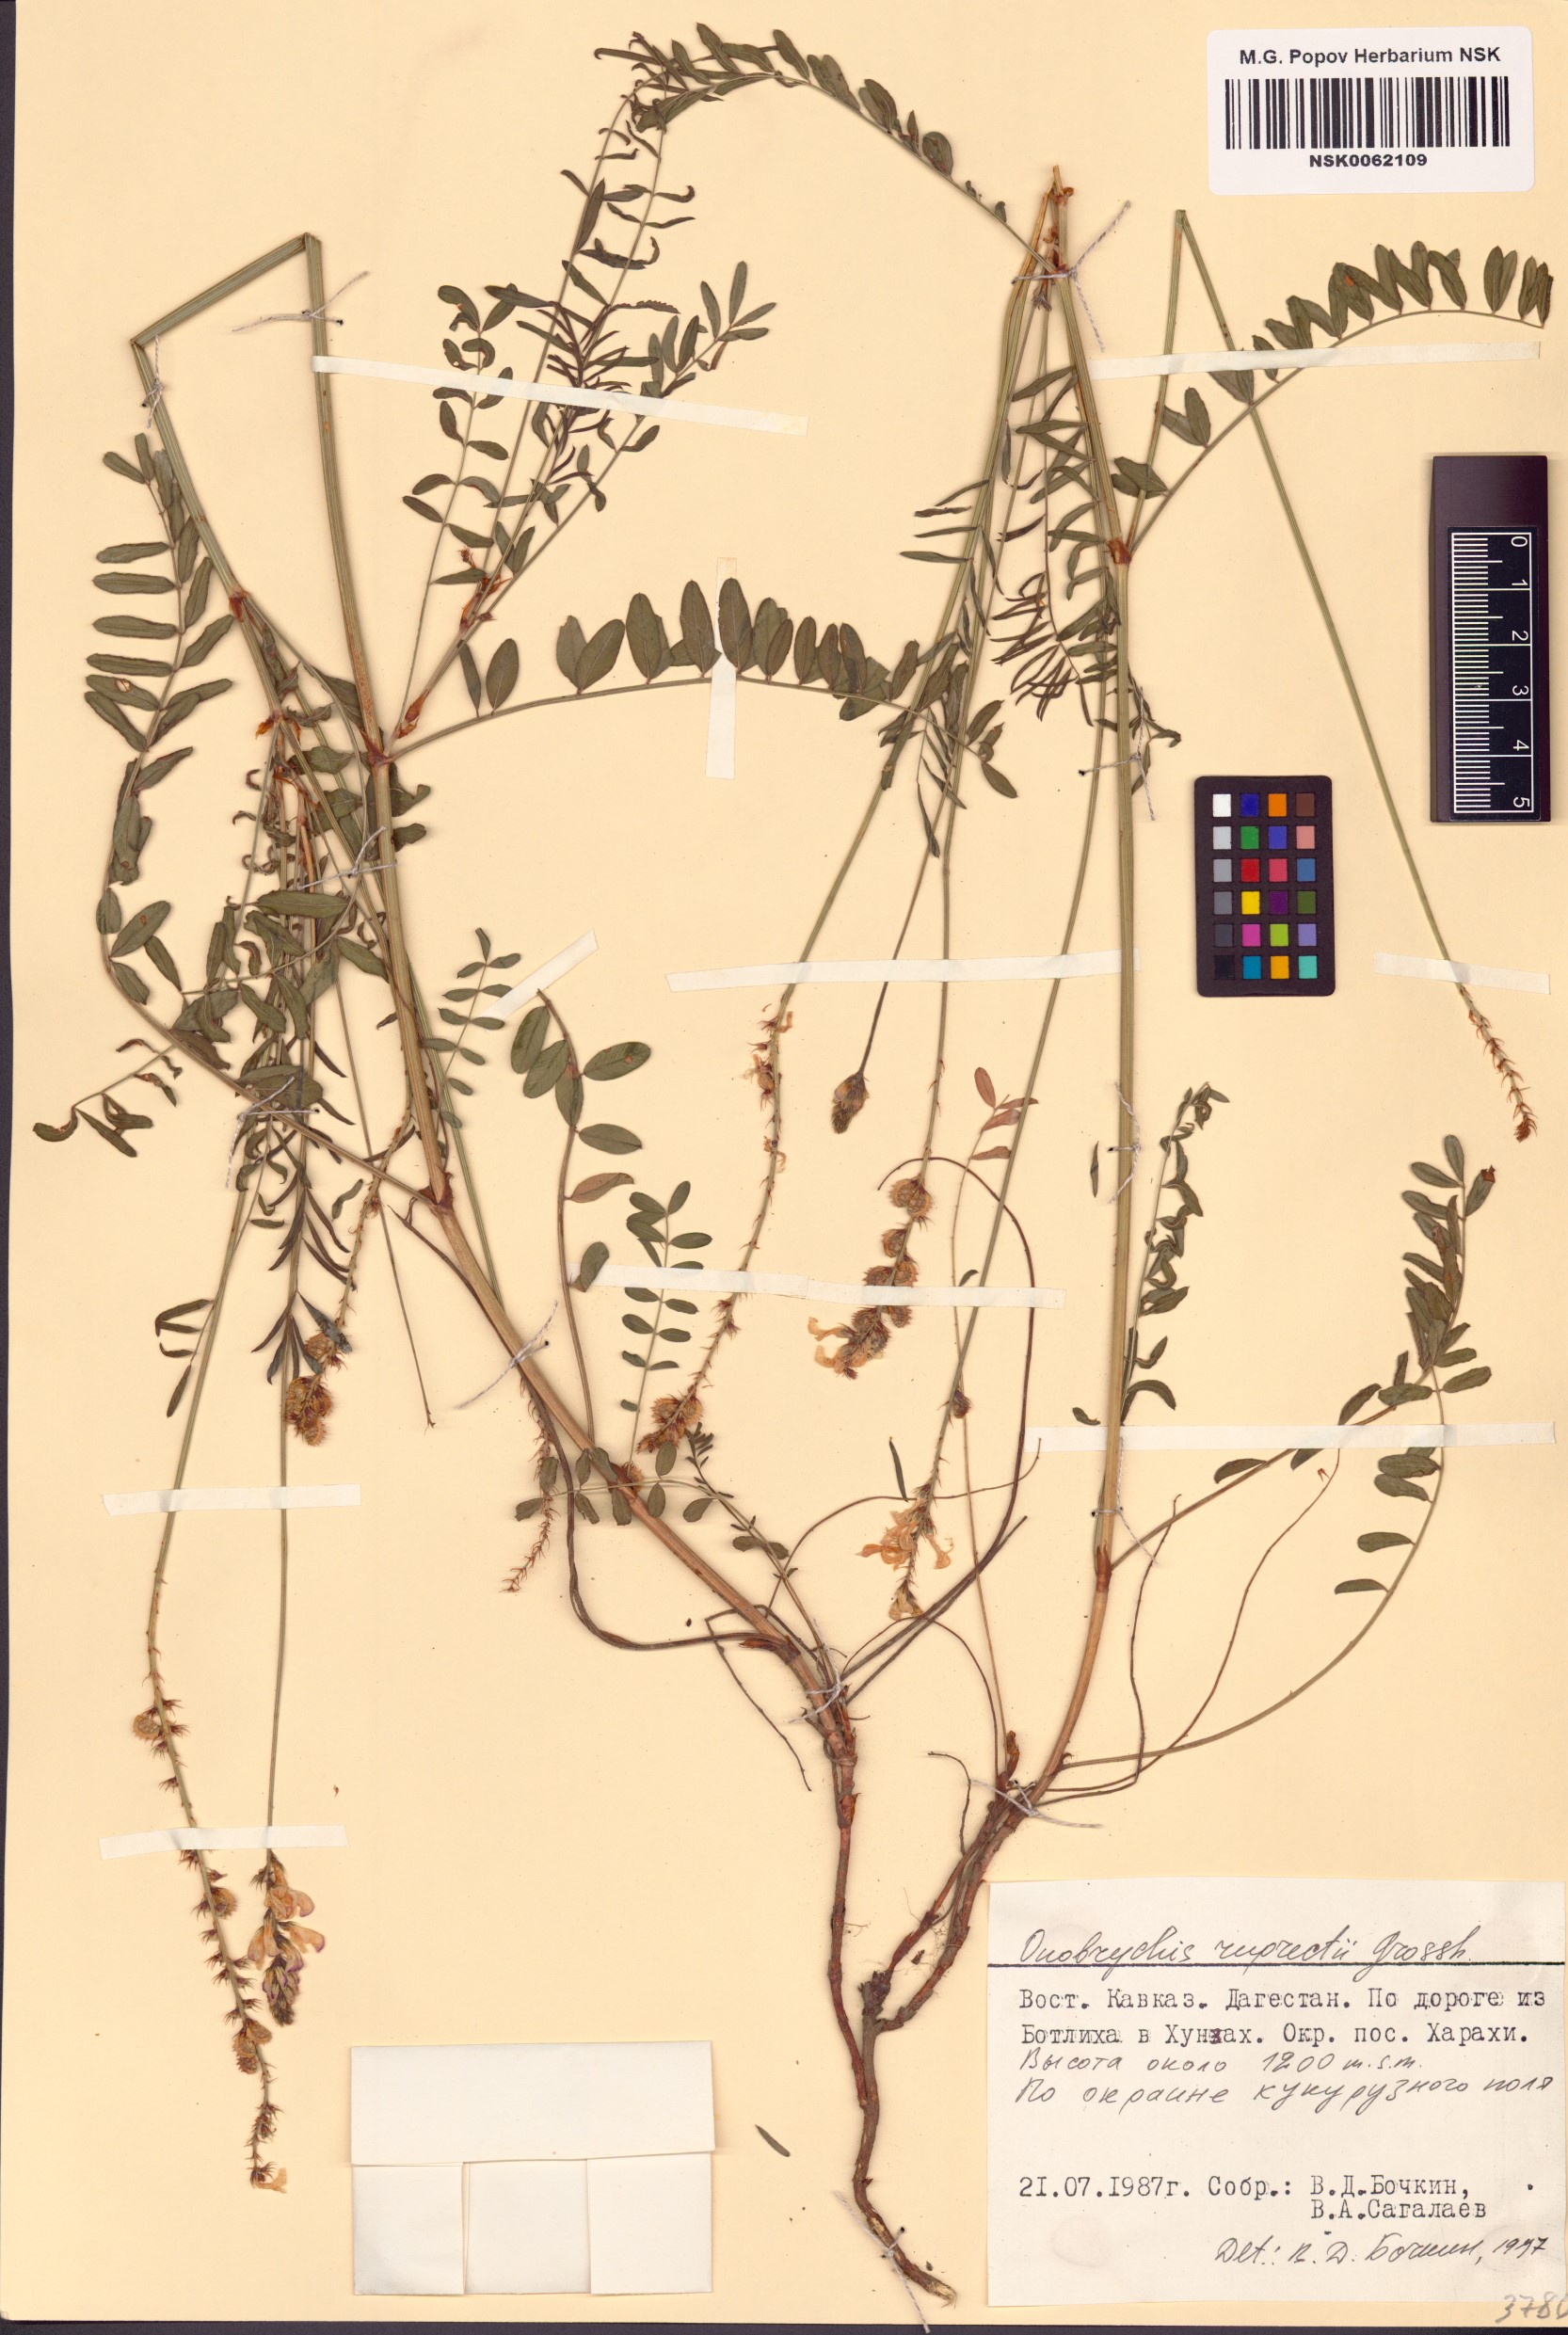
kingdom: Plantae
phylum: Tracheophyta
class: Magnoliopsida
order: Fabales
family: Fabaceae
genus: Onobrychis
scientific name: Onobrychis ruprechtii
